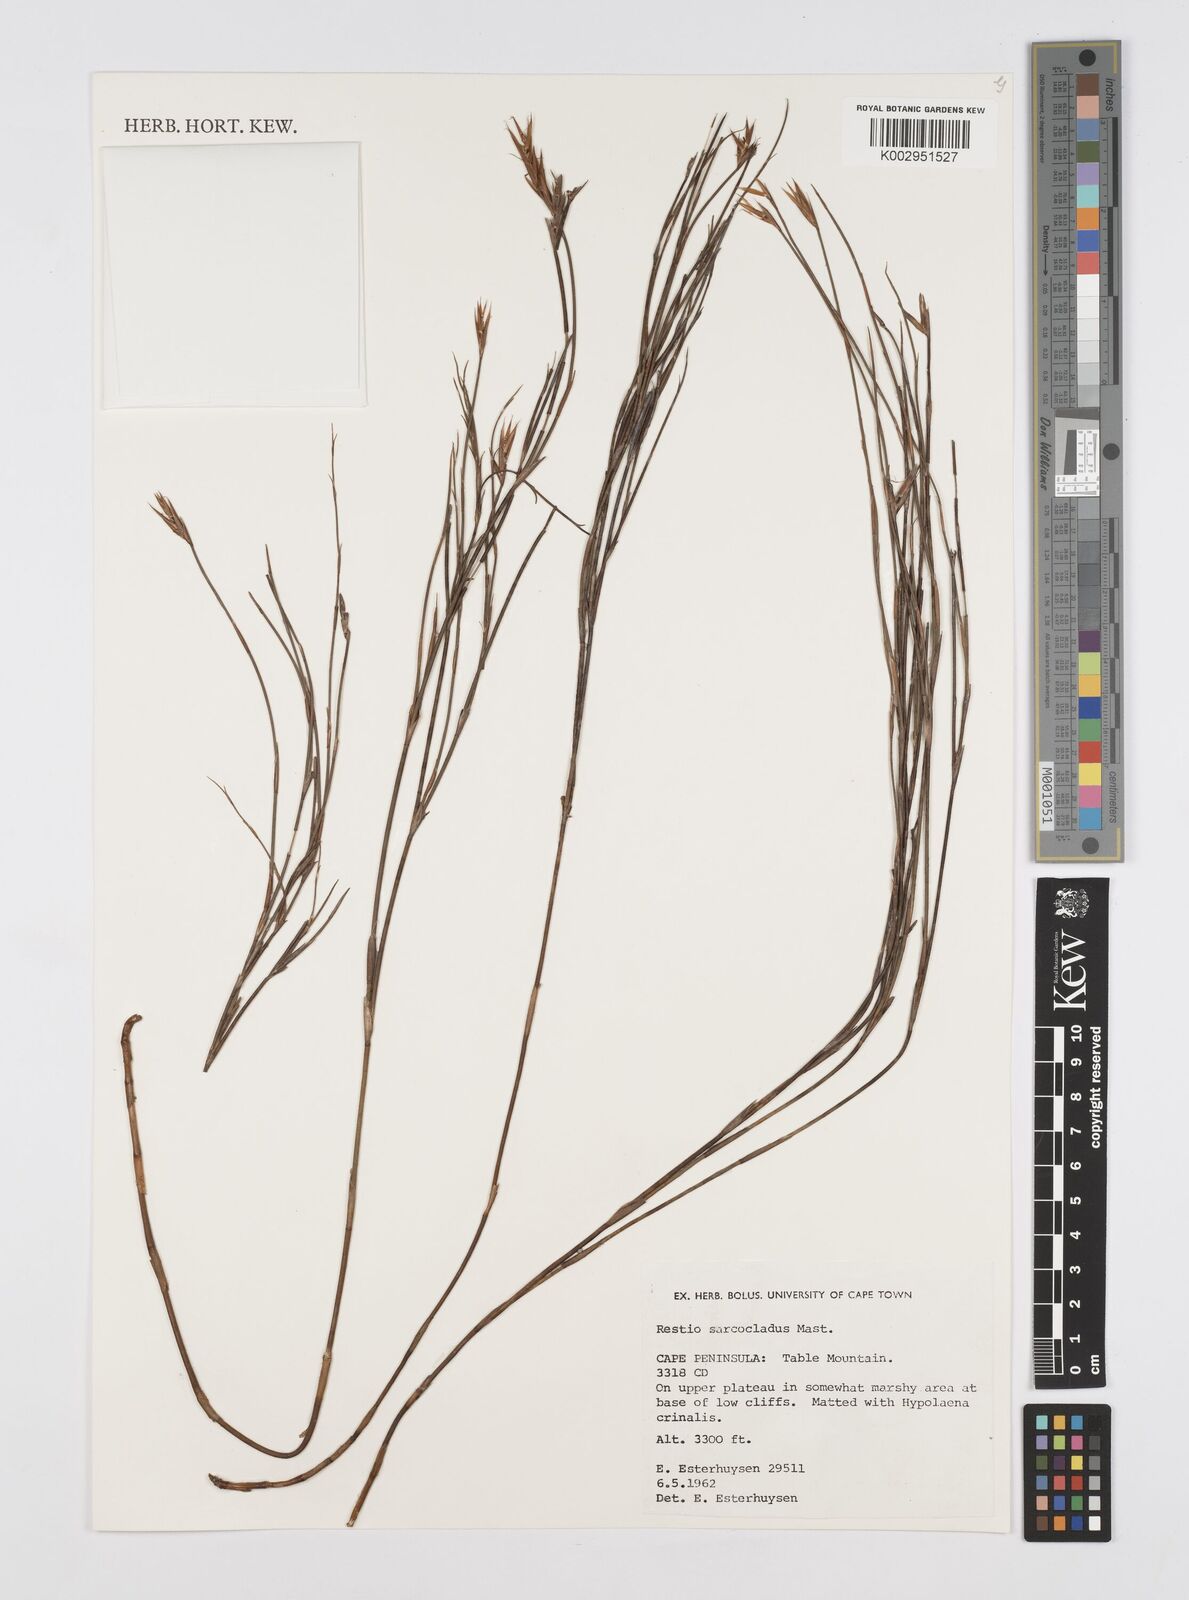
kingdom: Plantae
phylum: Tracheophyta
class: Liliopsida
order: Poales
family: Restionaceae
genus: Restio
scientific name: Restio saroclados
